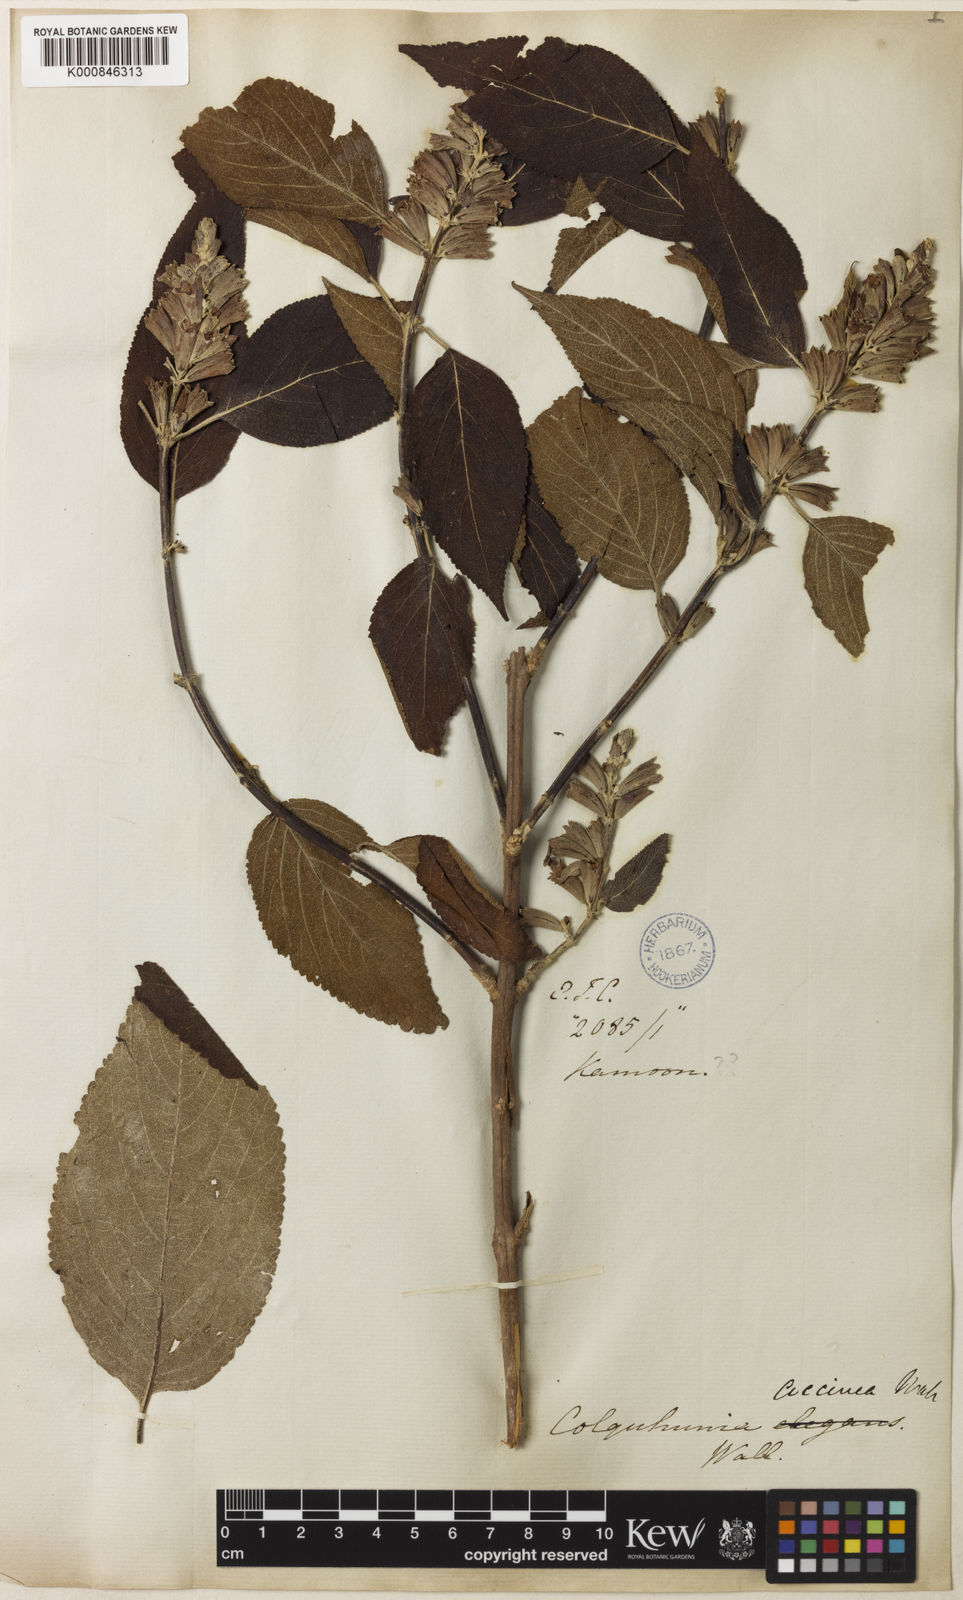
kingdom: Plantae
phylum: Tracheophyta
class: Magnoliopsida
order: Lamiales
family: Lamiaceae
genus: Colquhounia
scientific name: Colquhounia coccinea
